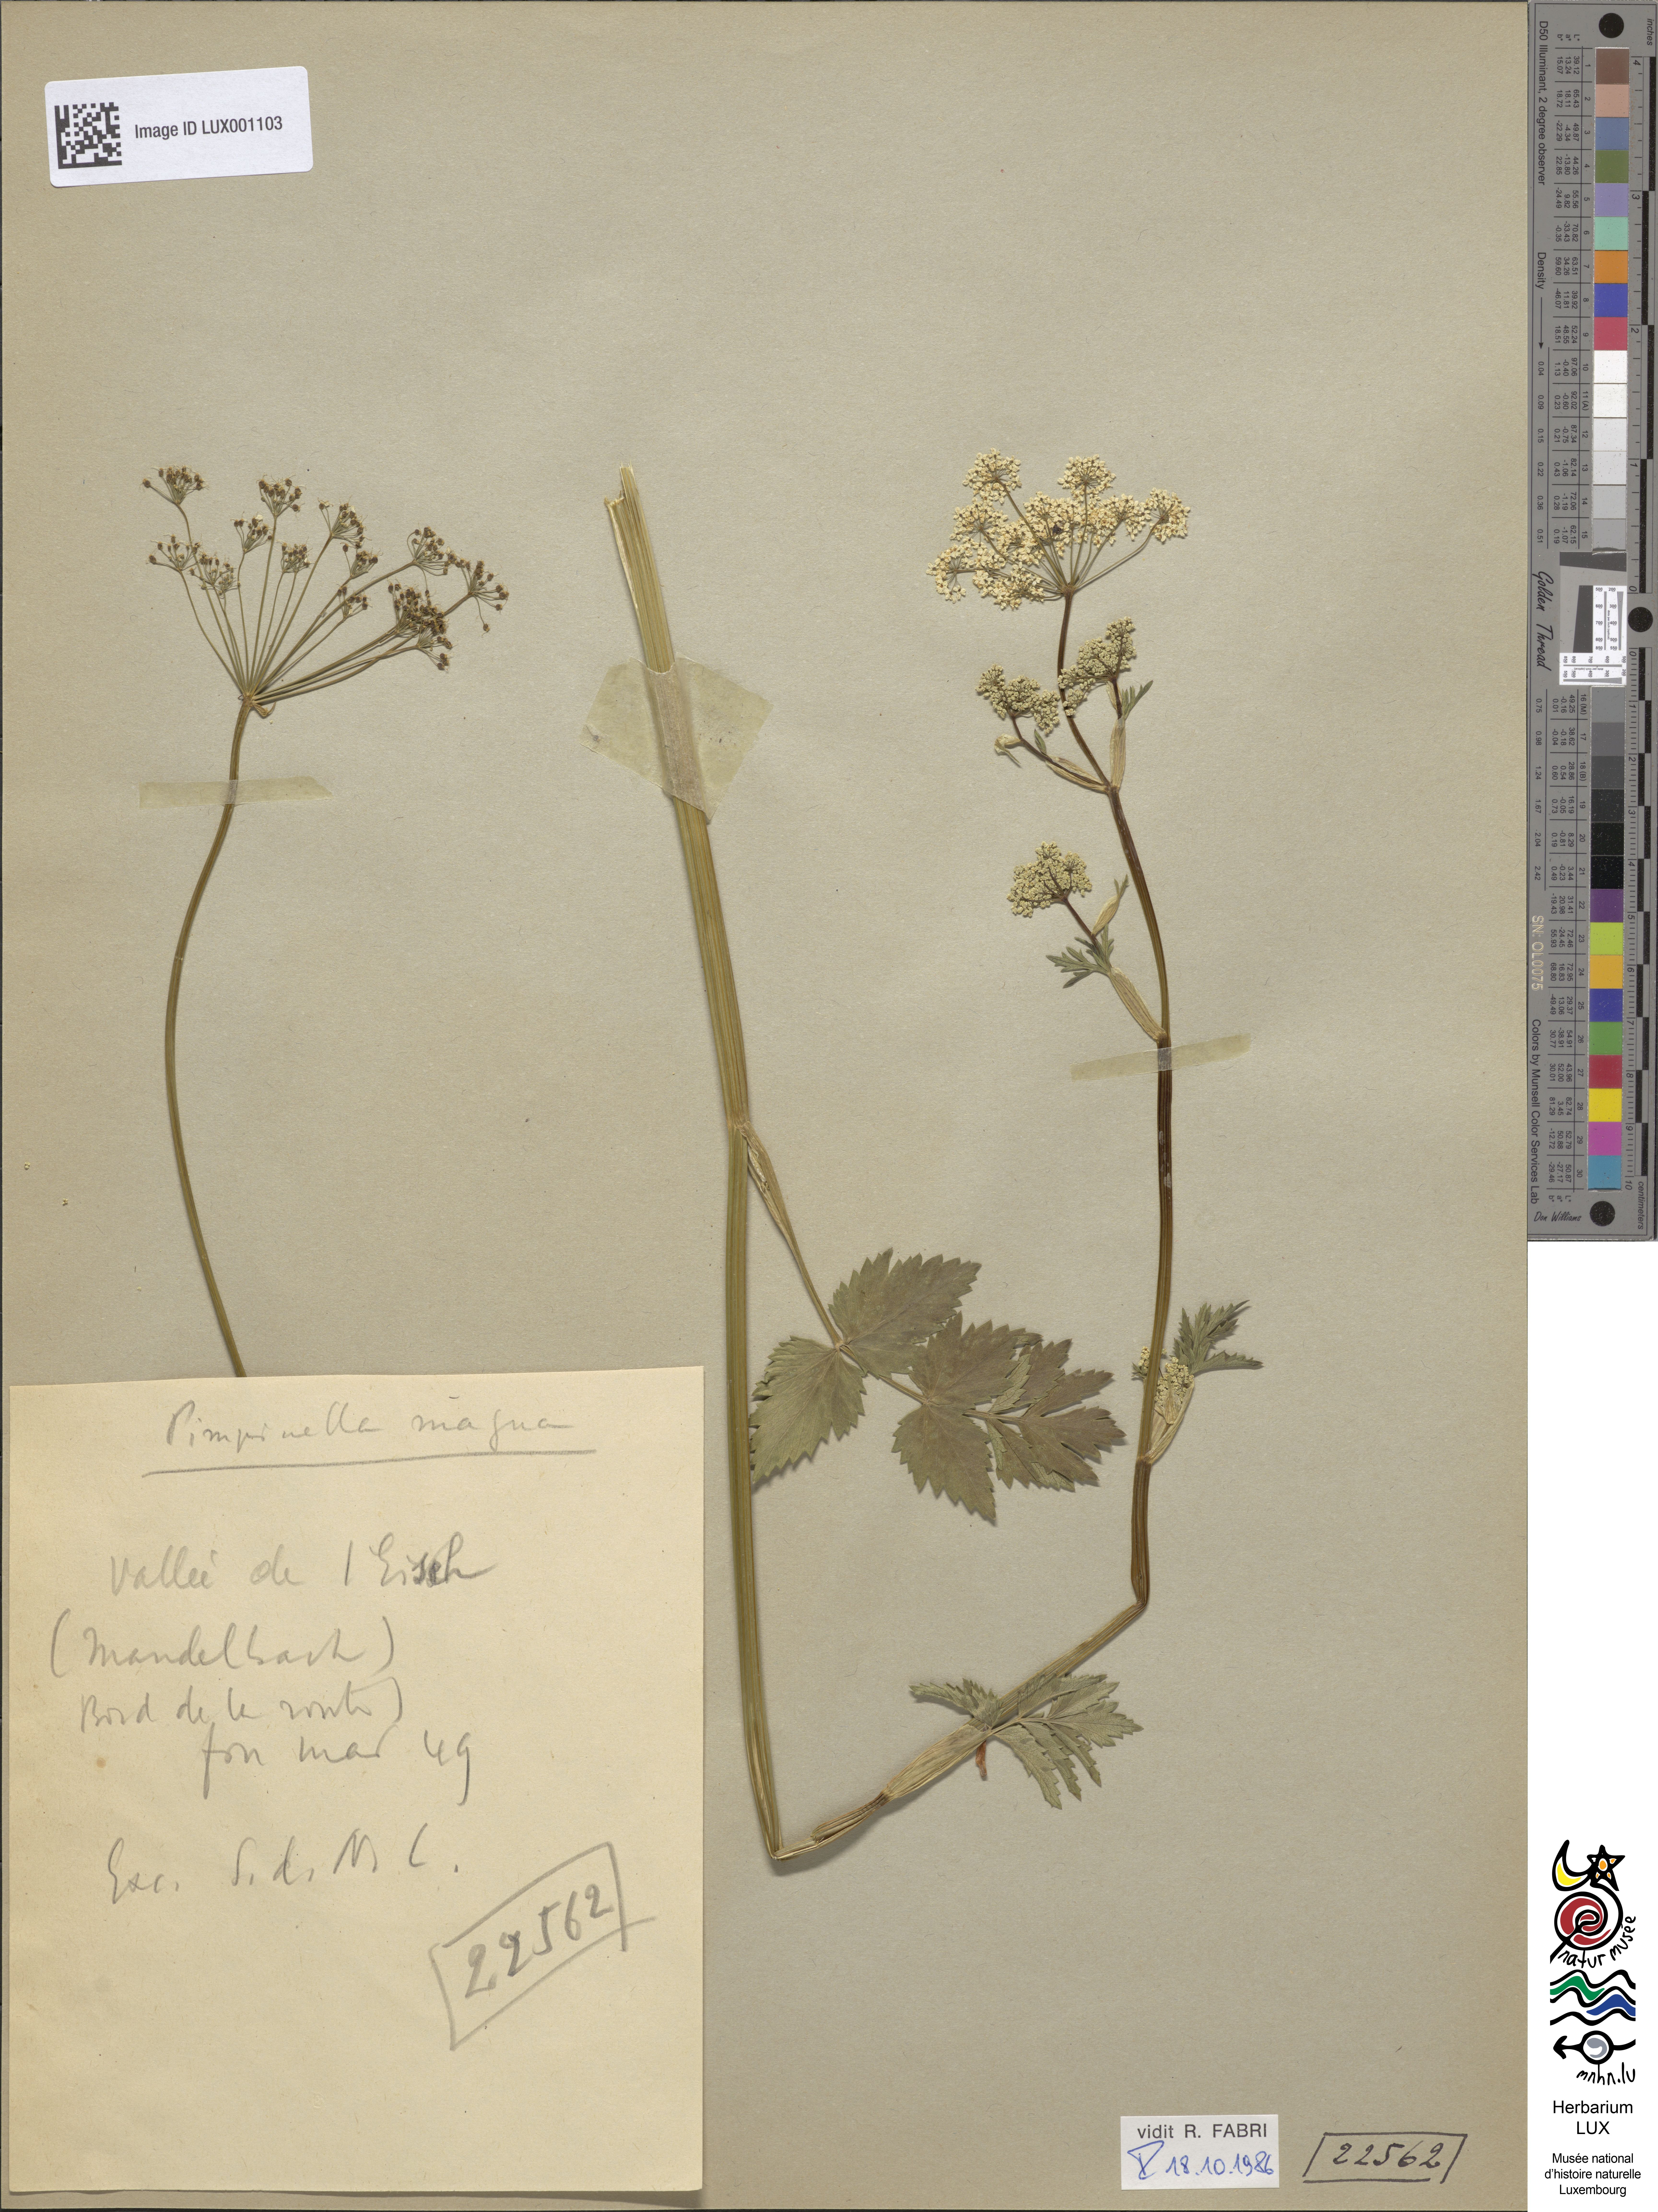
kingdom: Plantae
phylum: Tracheophyta
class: Magnoliopsida
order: Apiales
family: Apiaceae
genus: Pimpinella
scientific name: Pimpinella major
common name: Greater burnet-saxifrage
